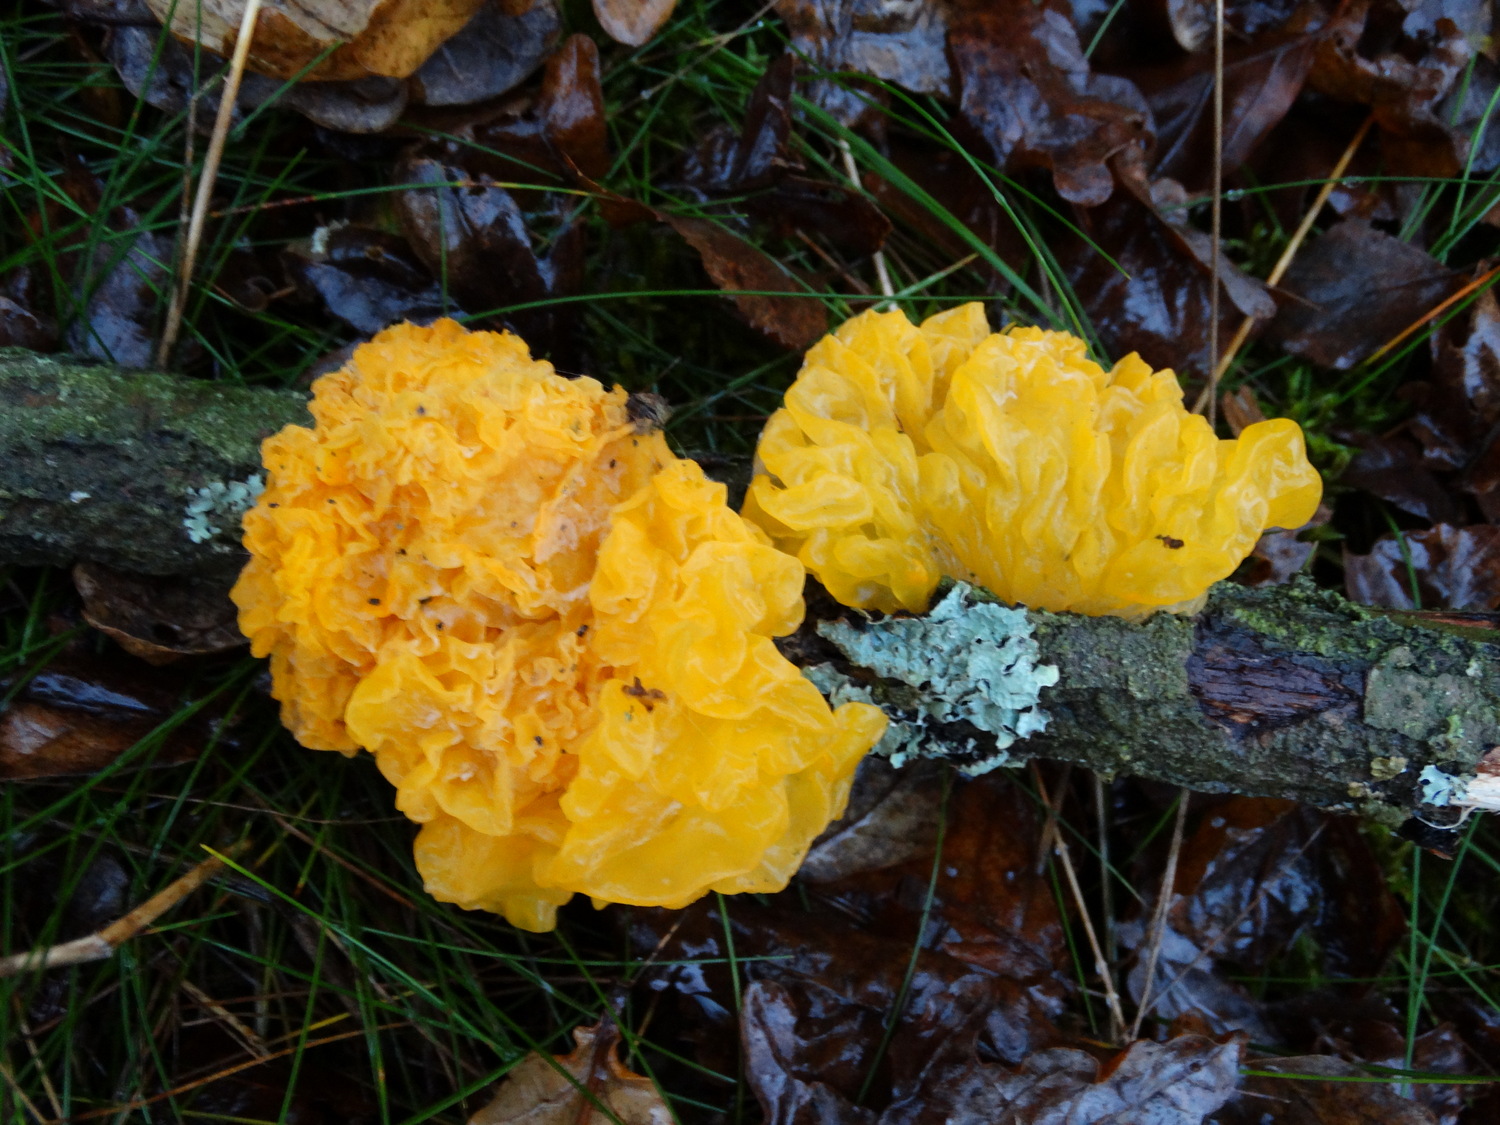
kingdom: Fungi
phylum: Basidiomycota
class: Tremellomycetes
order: Tremellales
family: Tremellaceae
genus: Tremella
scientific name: Tremella mesenterica
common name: gul bævresvamp
